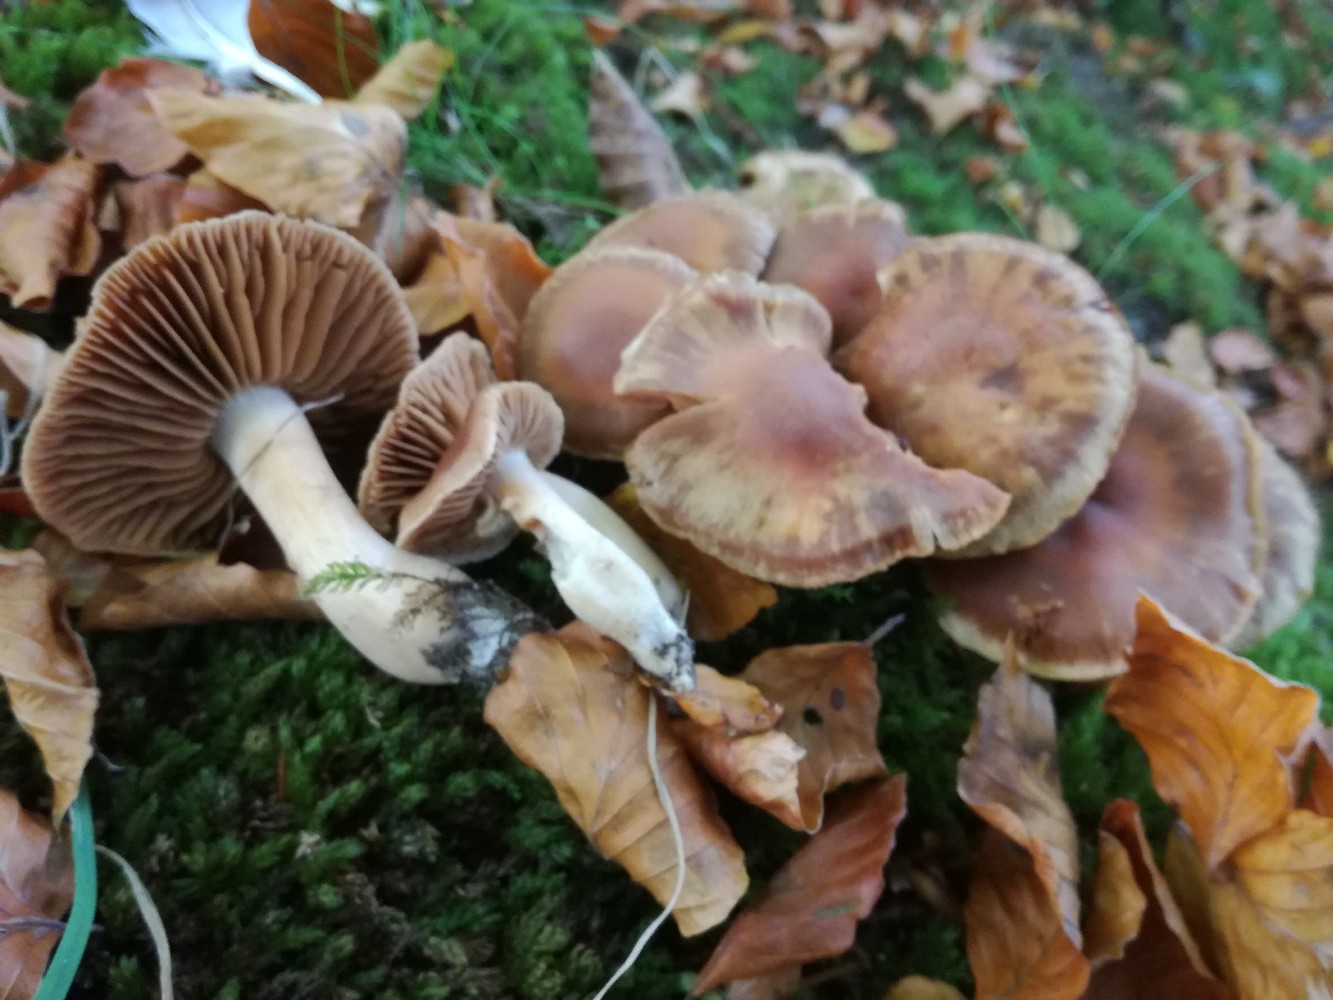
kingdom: Fungi
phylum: Basidiomycota
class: Agaricomycetes
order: Agaricales
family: Cortinariaceae
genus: Cortinarius
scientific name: Cortinarius duracinus
